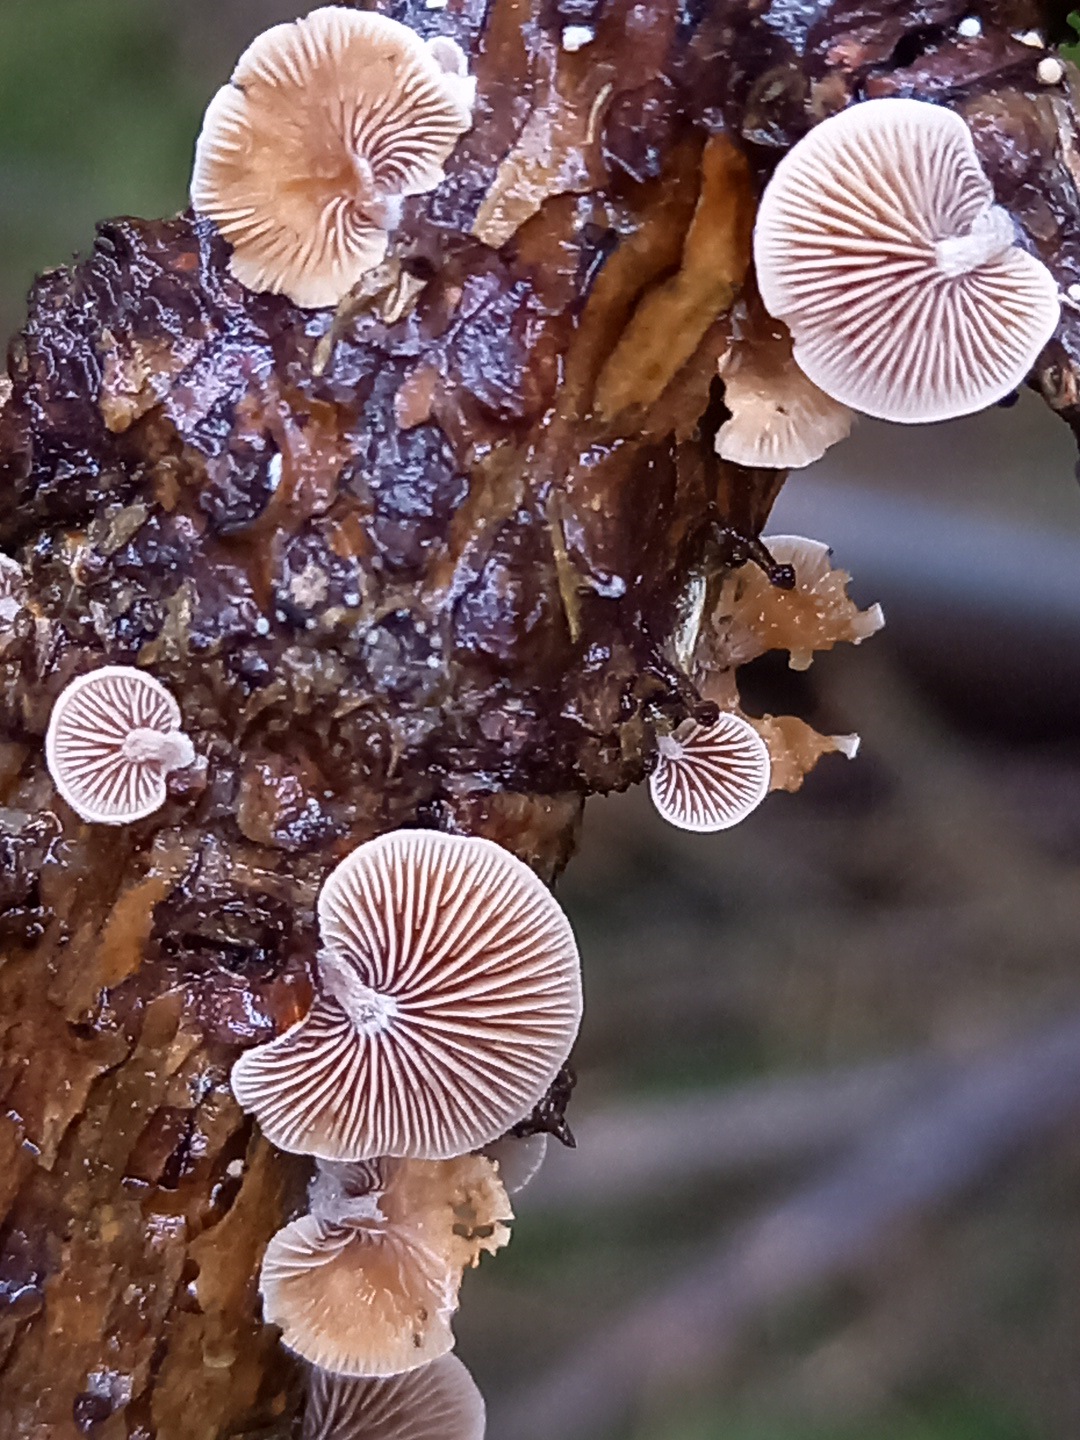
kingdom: Fungi
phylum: Basidiomycota
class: Agaricomycetes
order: Agaricales
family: Strophariaceae
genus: Deconica
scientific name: Deconica horizontalis
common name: ved-stråhat
